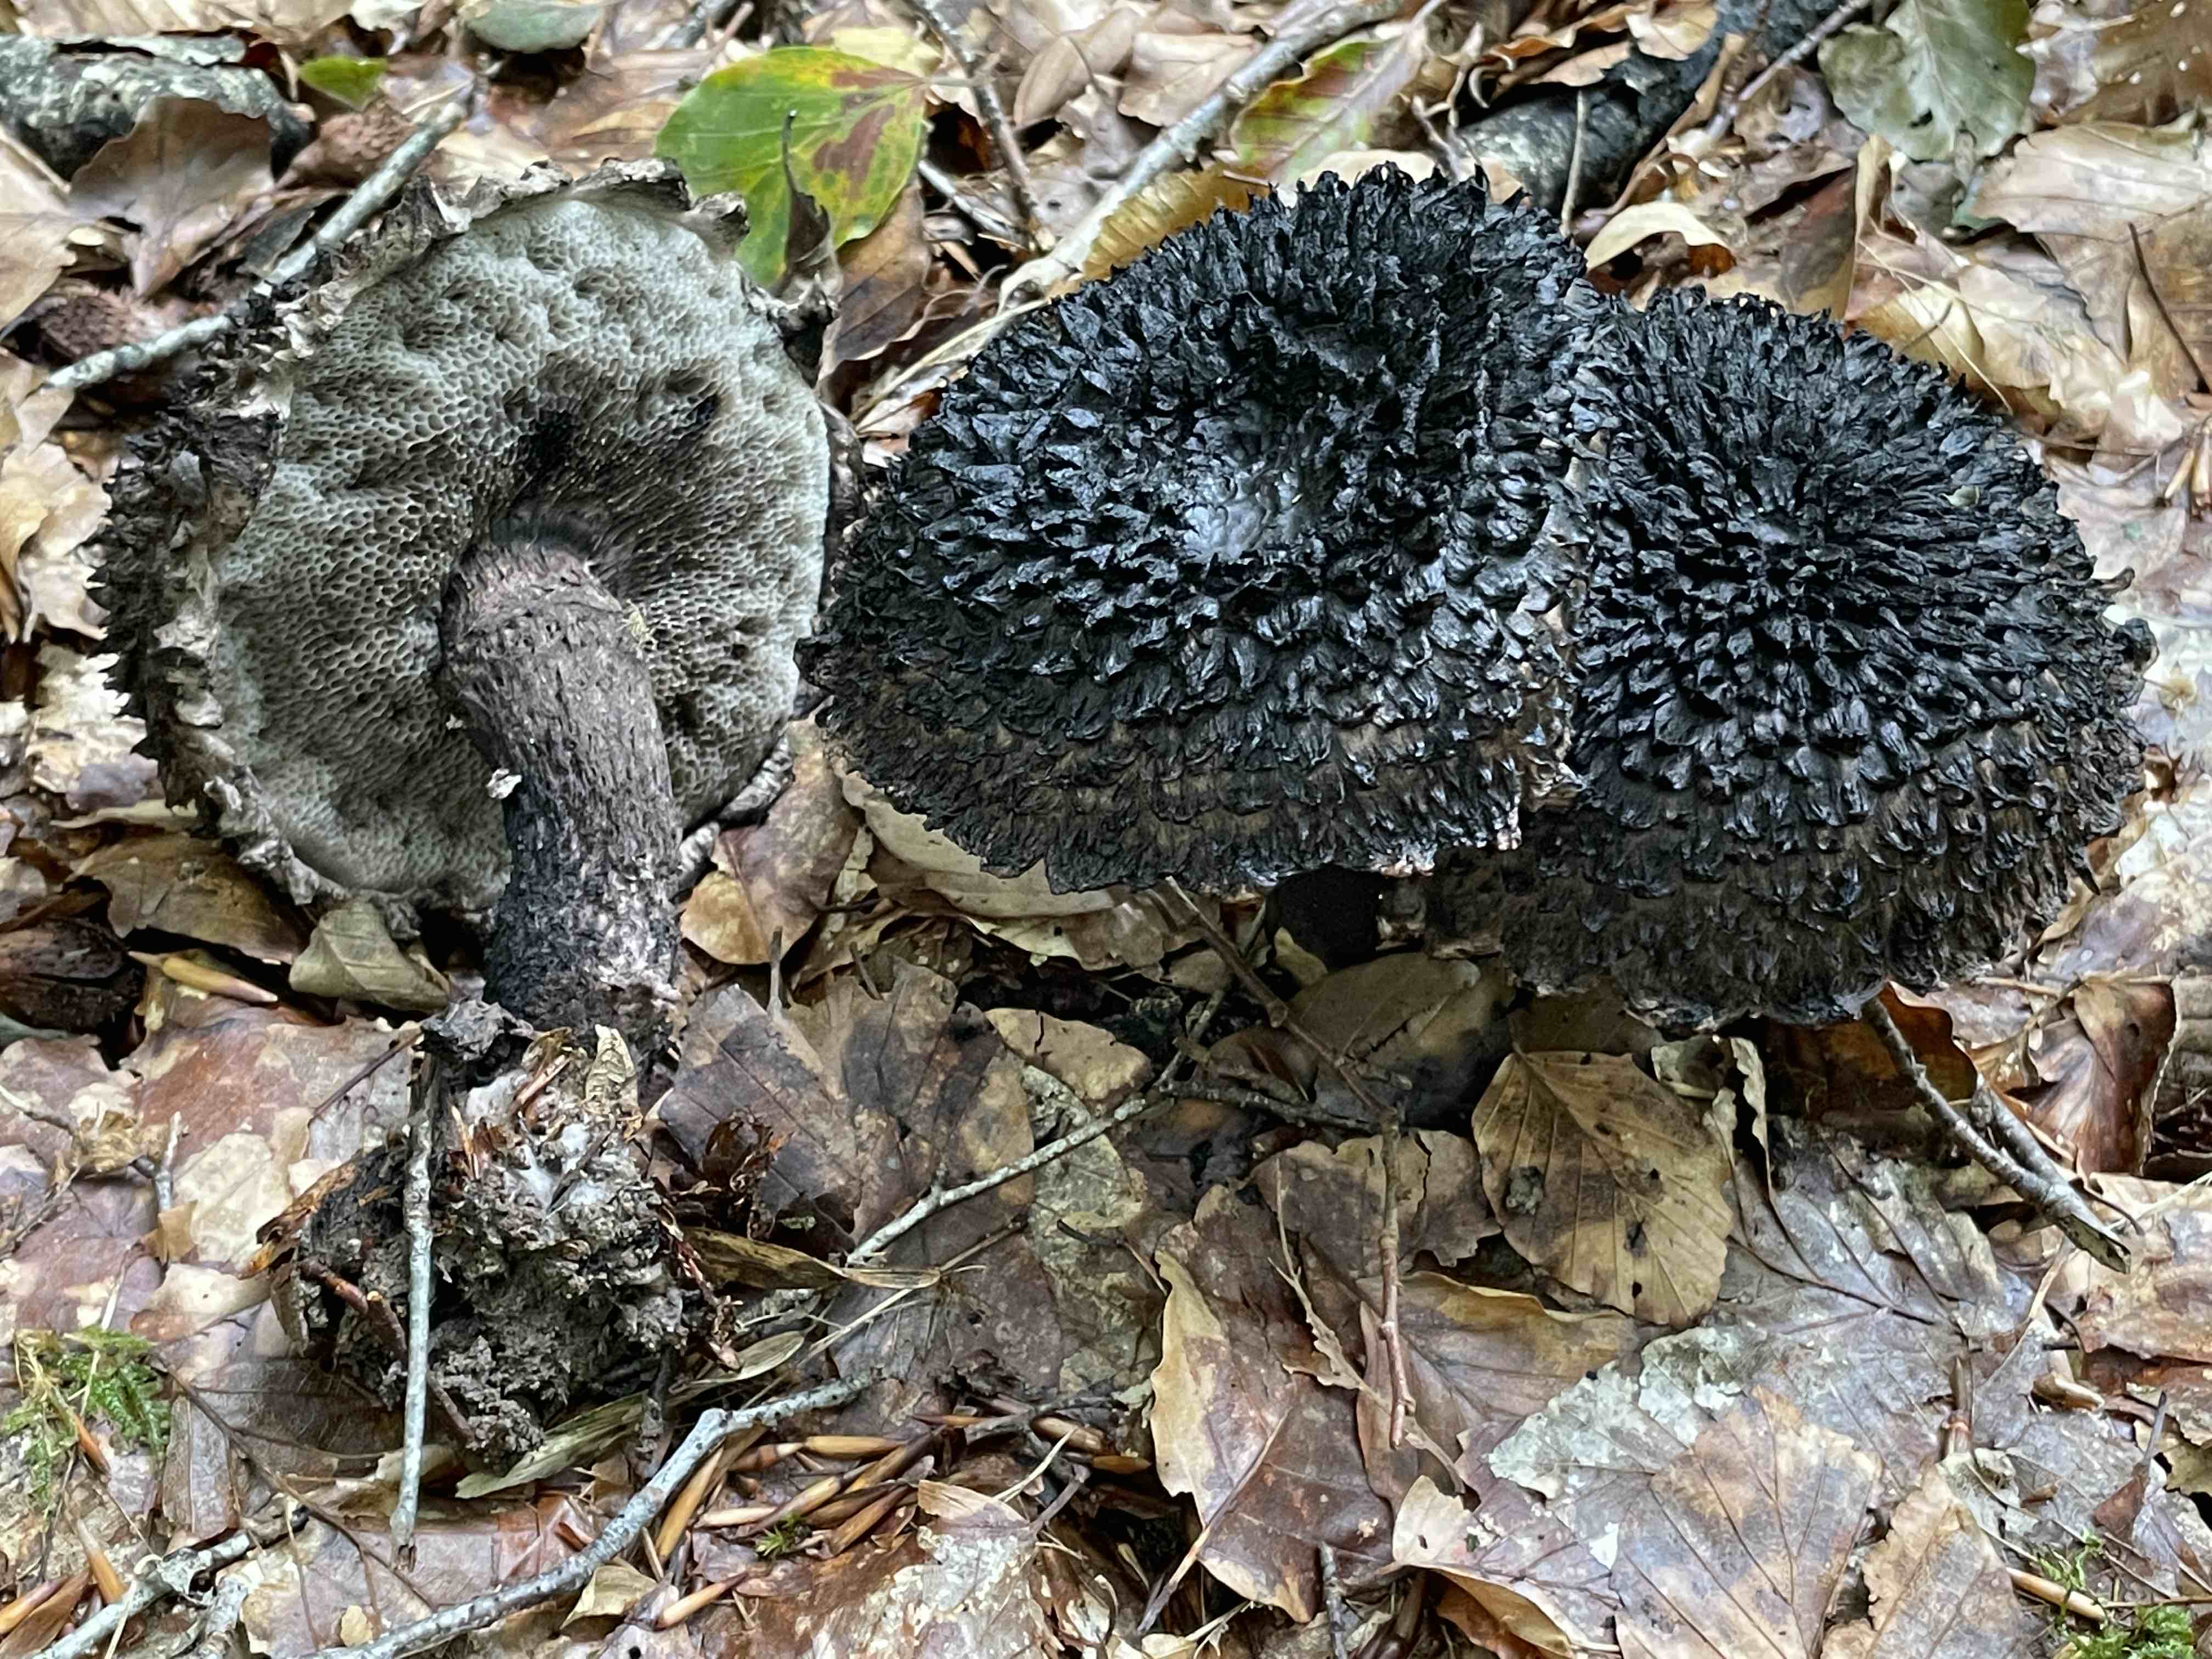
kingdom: Fungi
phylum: Basidiomycota
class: Agaricomycetes
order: Boletales
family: Boletaceae
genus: Strobilomyces
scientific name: Strobilomyces strobilaceus
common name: koglerørhat
